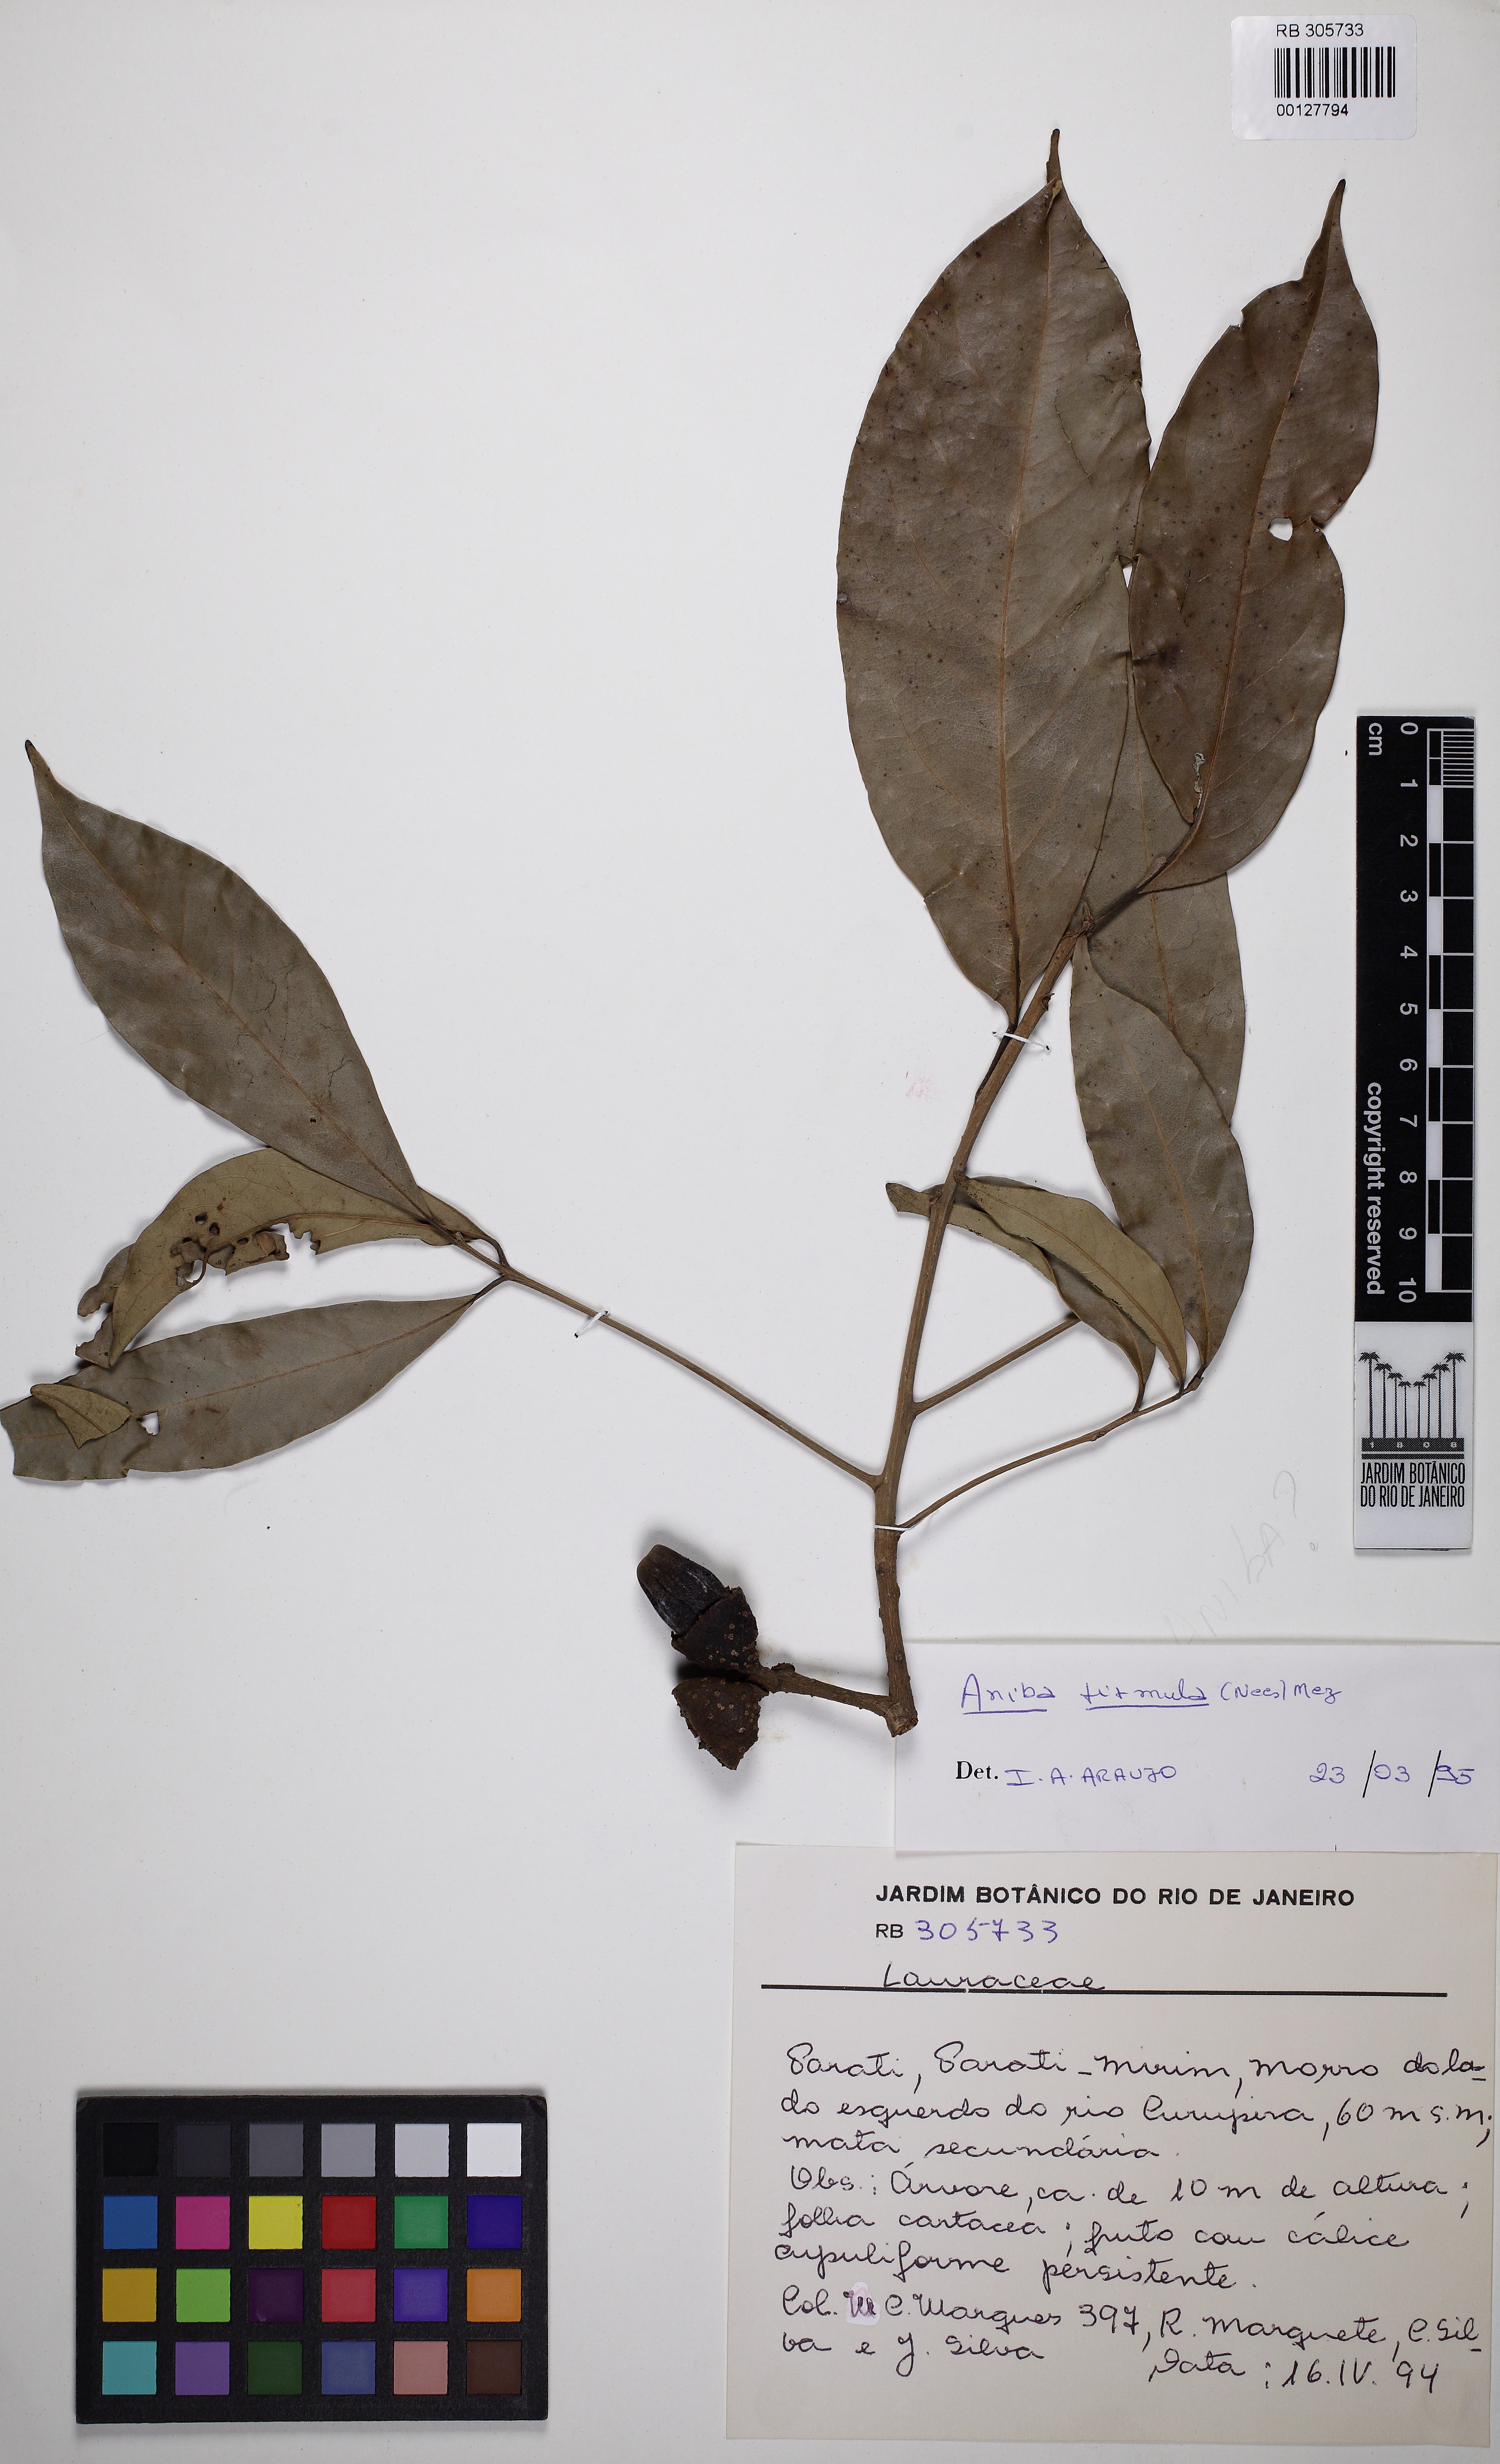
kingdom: Plantae
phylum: Tracheophyta
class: Magnoliopsida
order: Laurales
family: Lauraceae
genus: Aniba
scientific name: Aniba firmula
